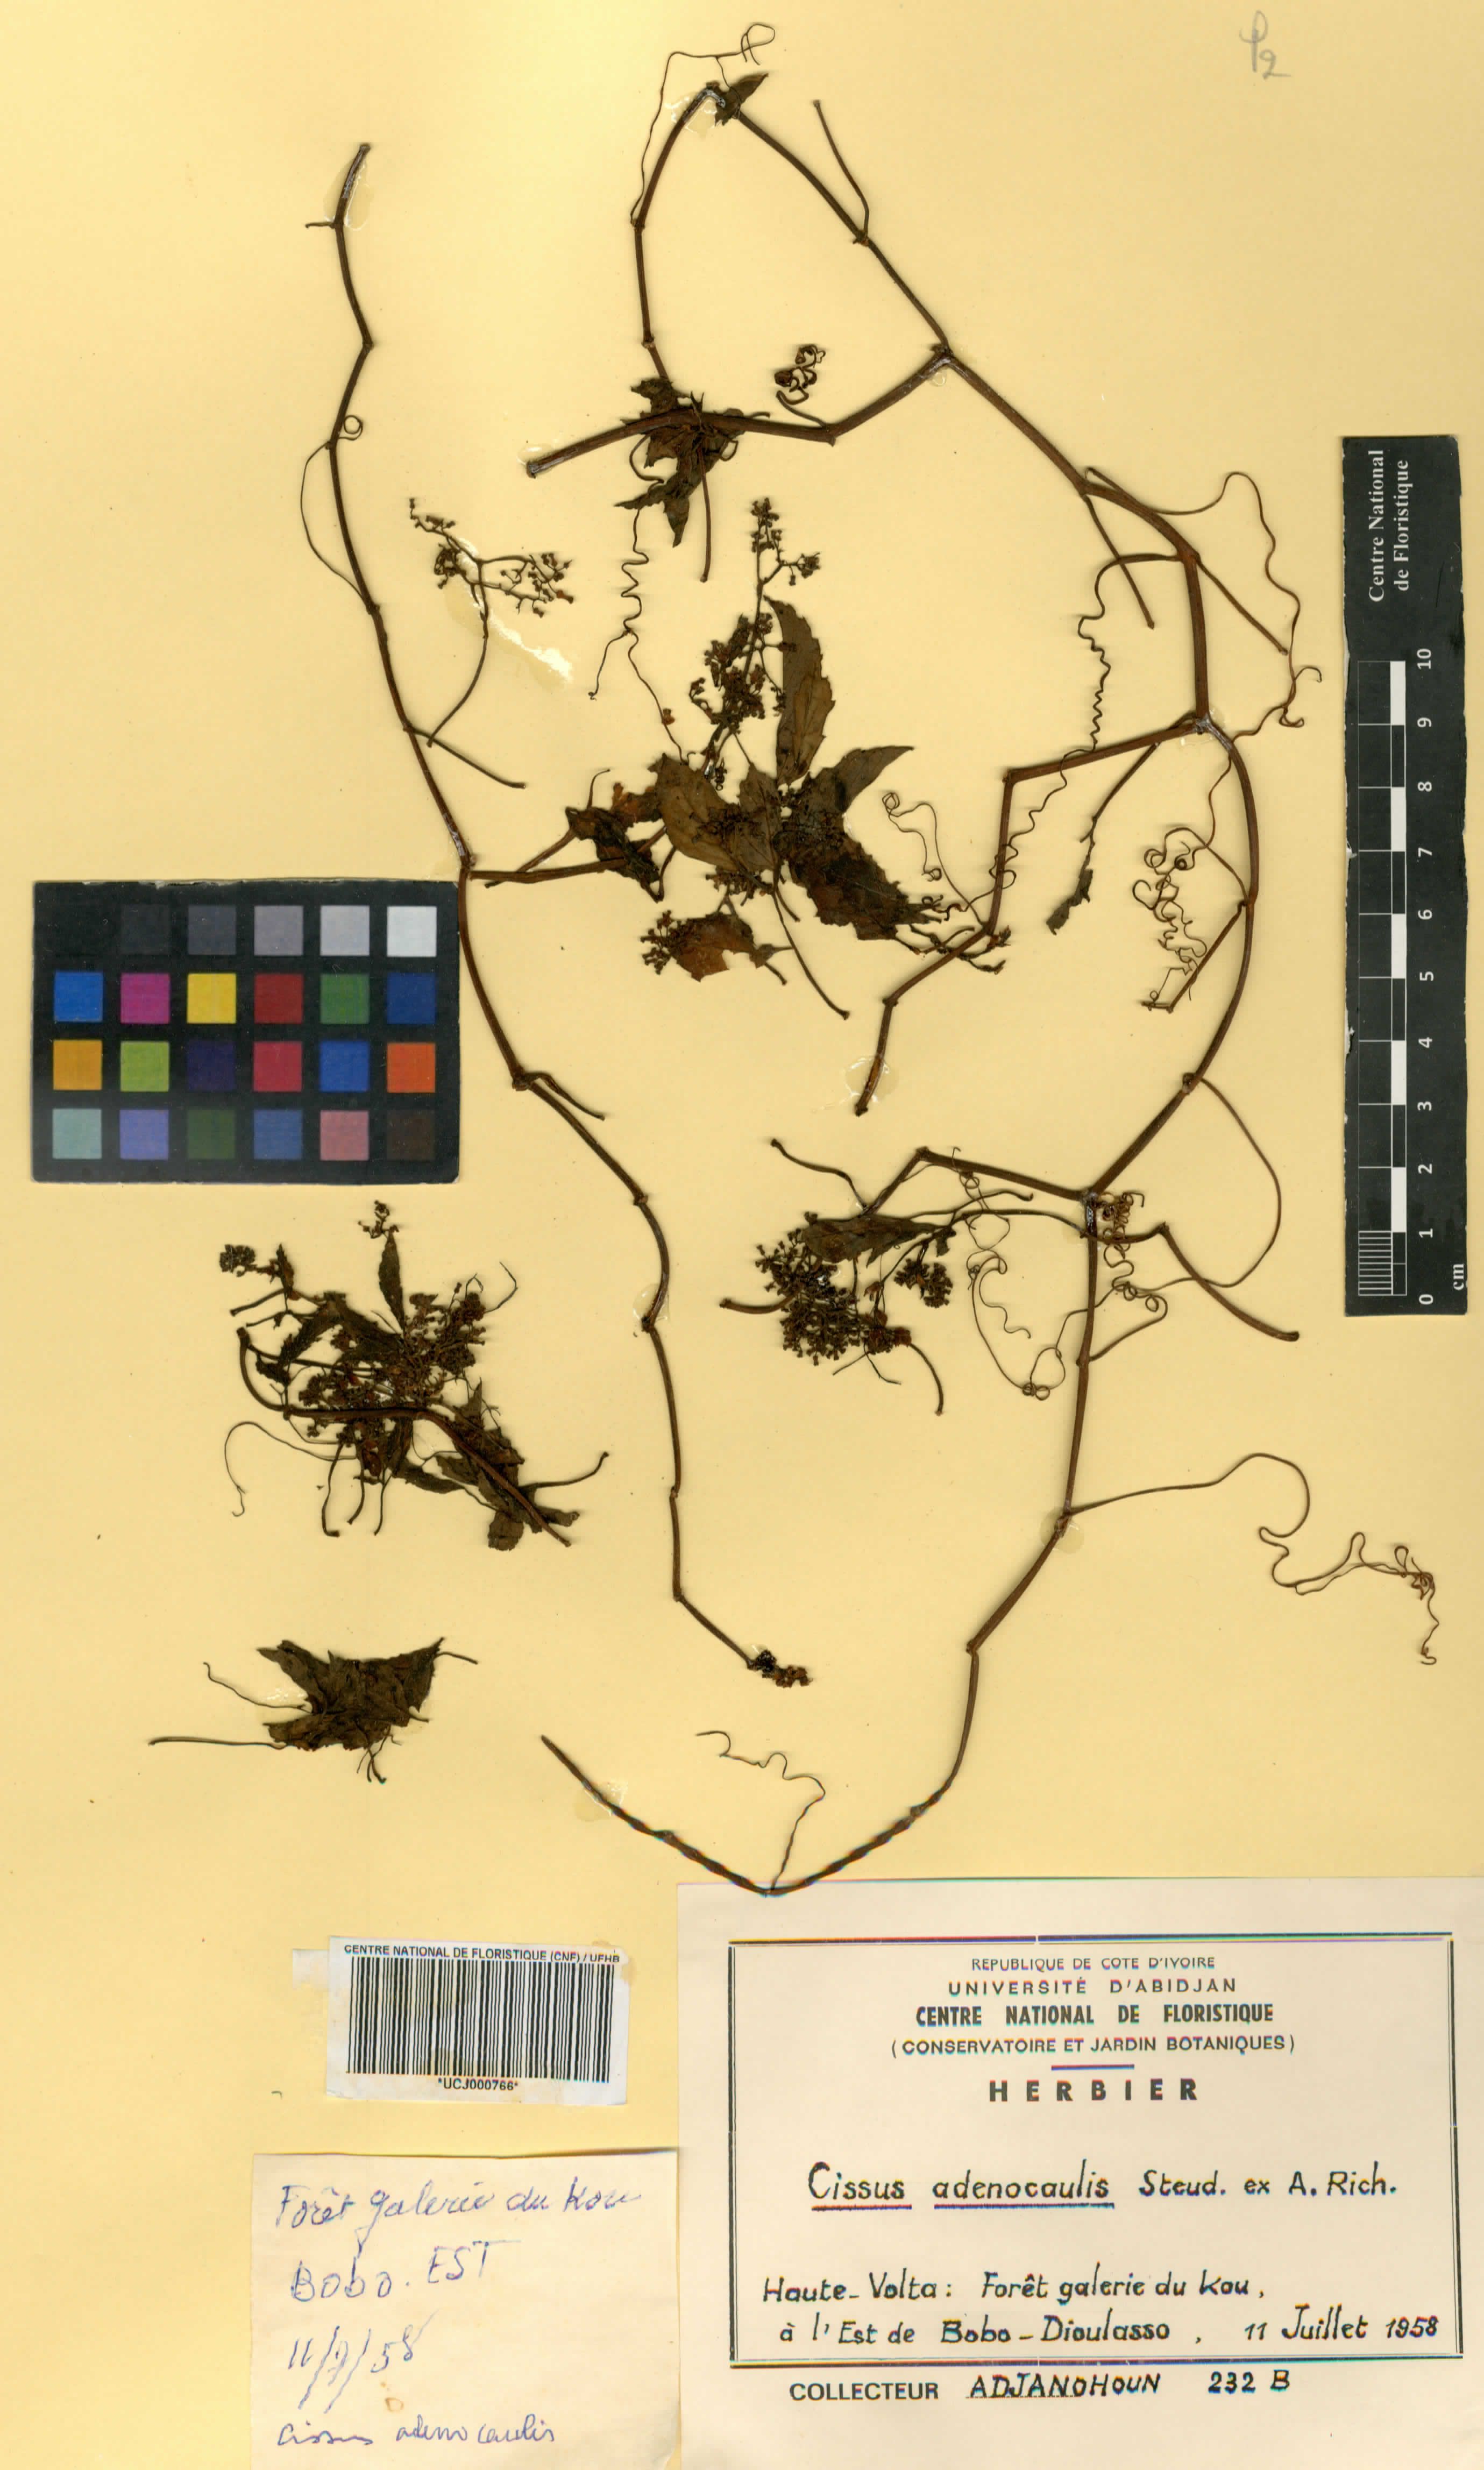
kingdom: Plantae
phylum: Tracheophyta
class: Magnoliopsida
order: Vitales
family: Vitaceae
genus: Cissus
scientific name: Cissus
